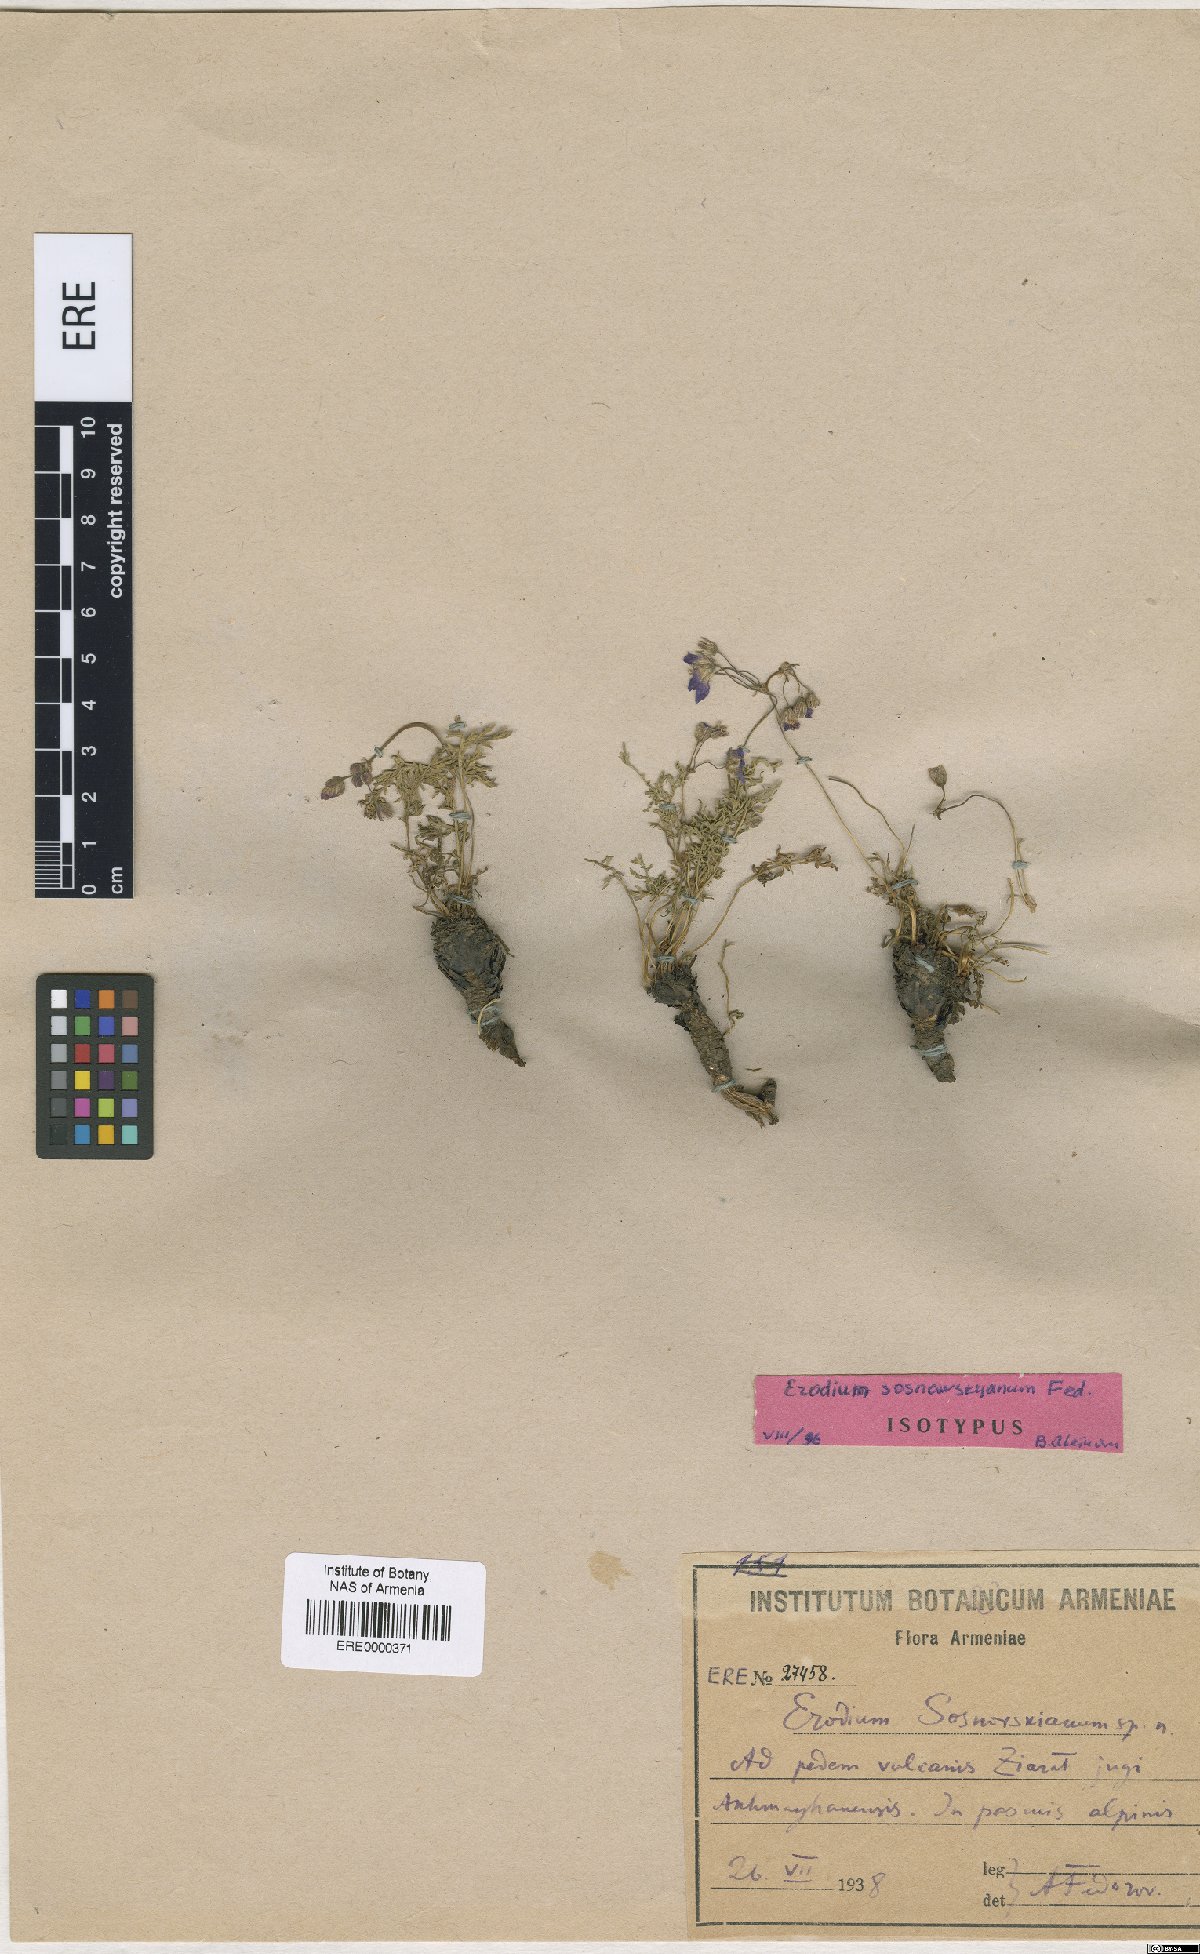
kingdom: Plantae
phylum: Tracheophyta
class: Magnoliopsida
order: Geraniales
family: Geraniaceae
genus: Erodium
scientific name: Erodium absinthoides
